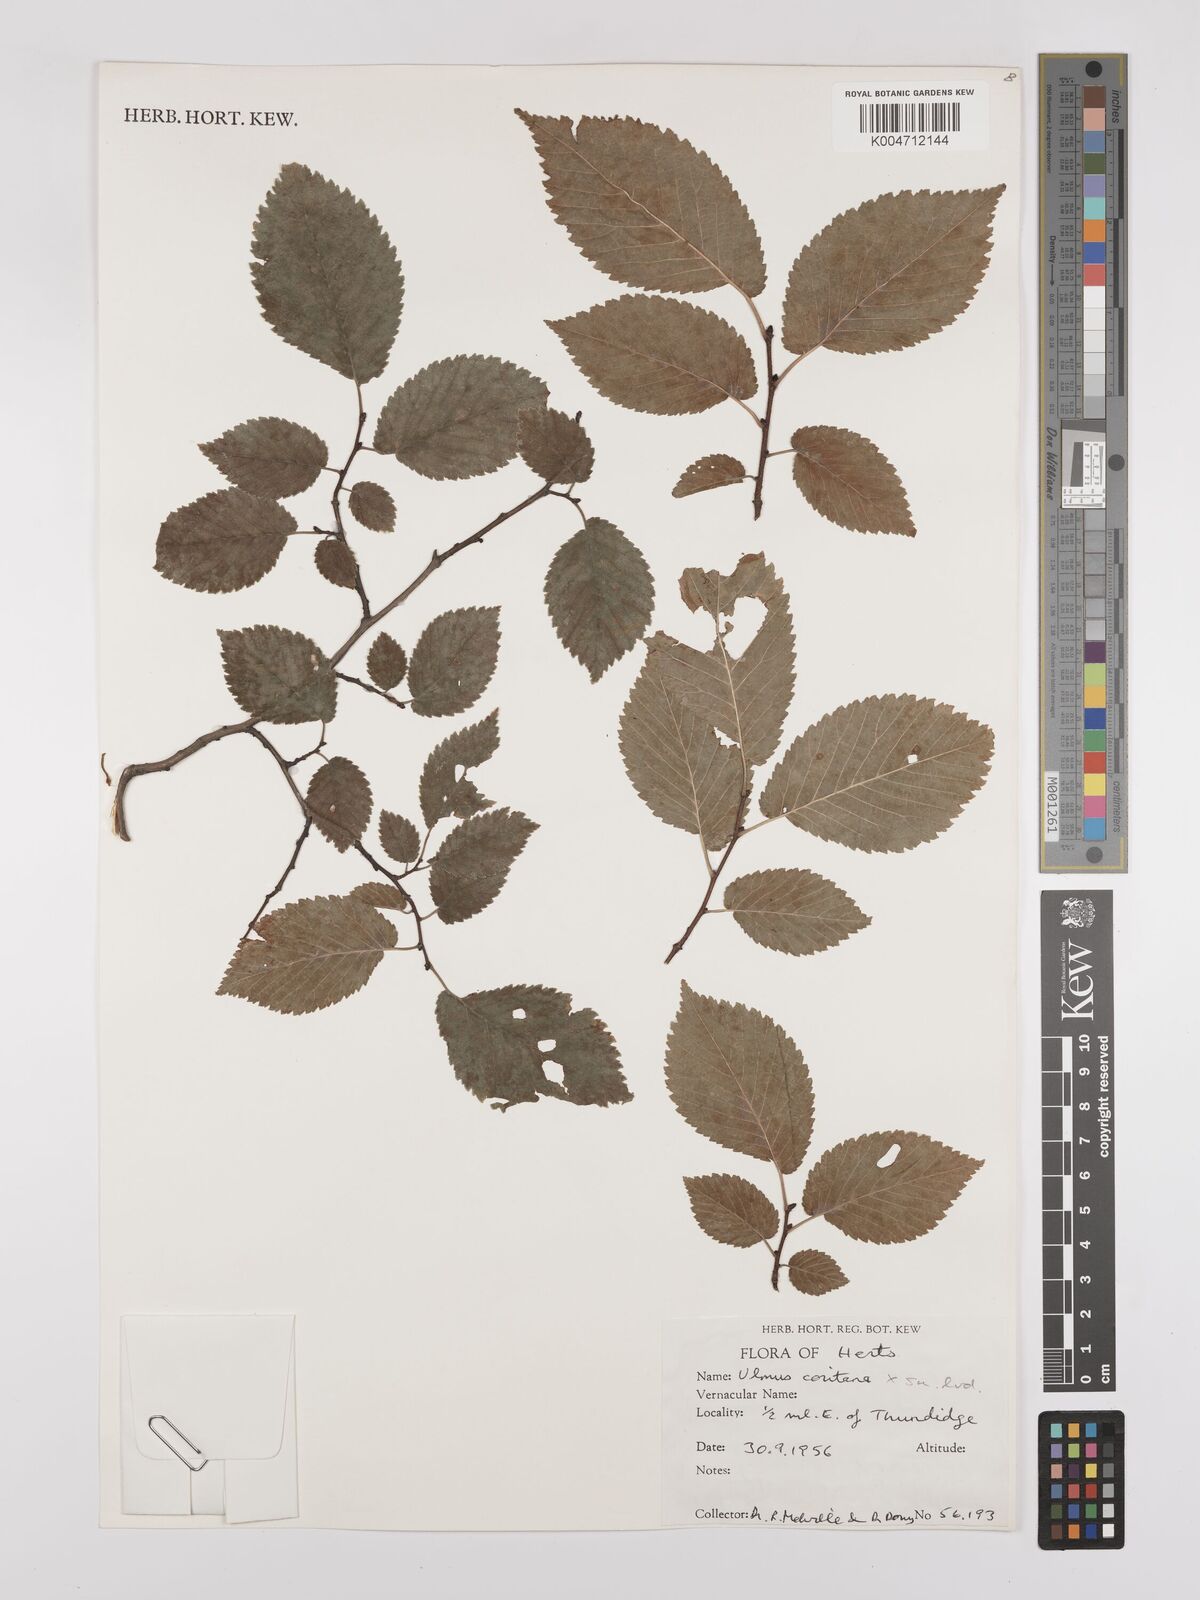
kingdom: Plantae
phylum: Tracheophyta
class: Magnoliopsida
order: Rosales
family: Ulmaceae
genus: Ulmus
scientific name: Ulmus minor
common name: Small-leaved elm
